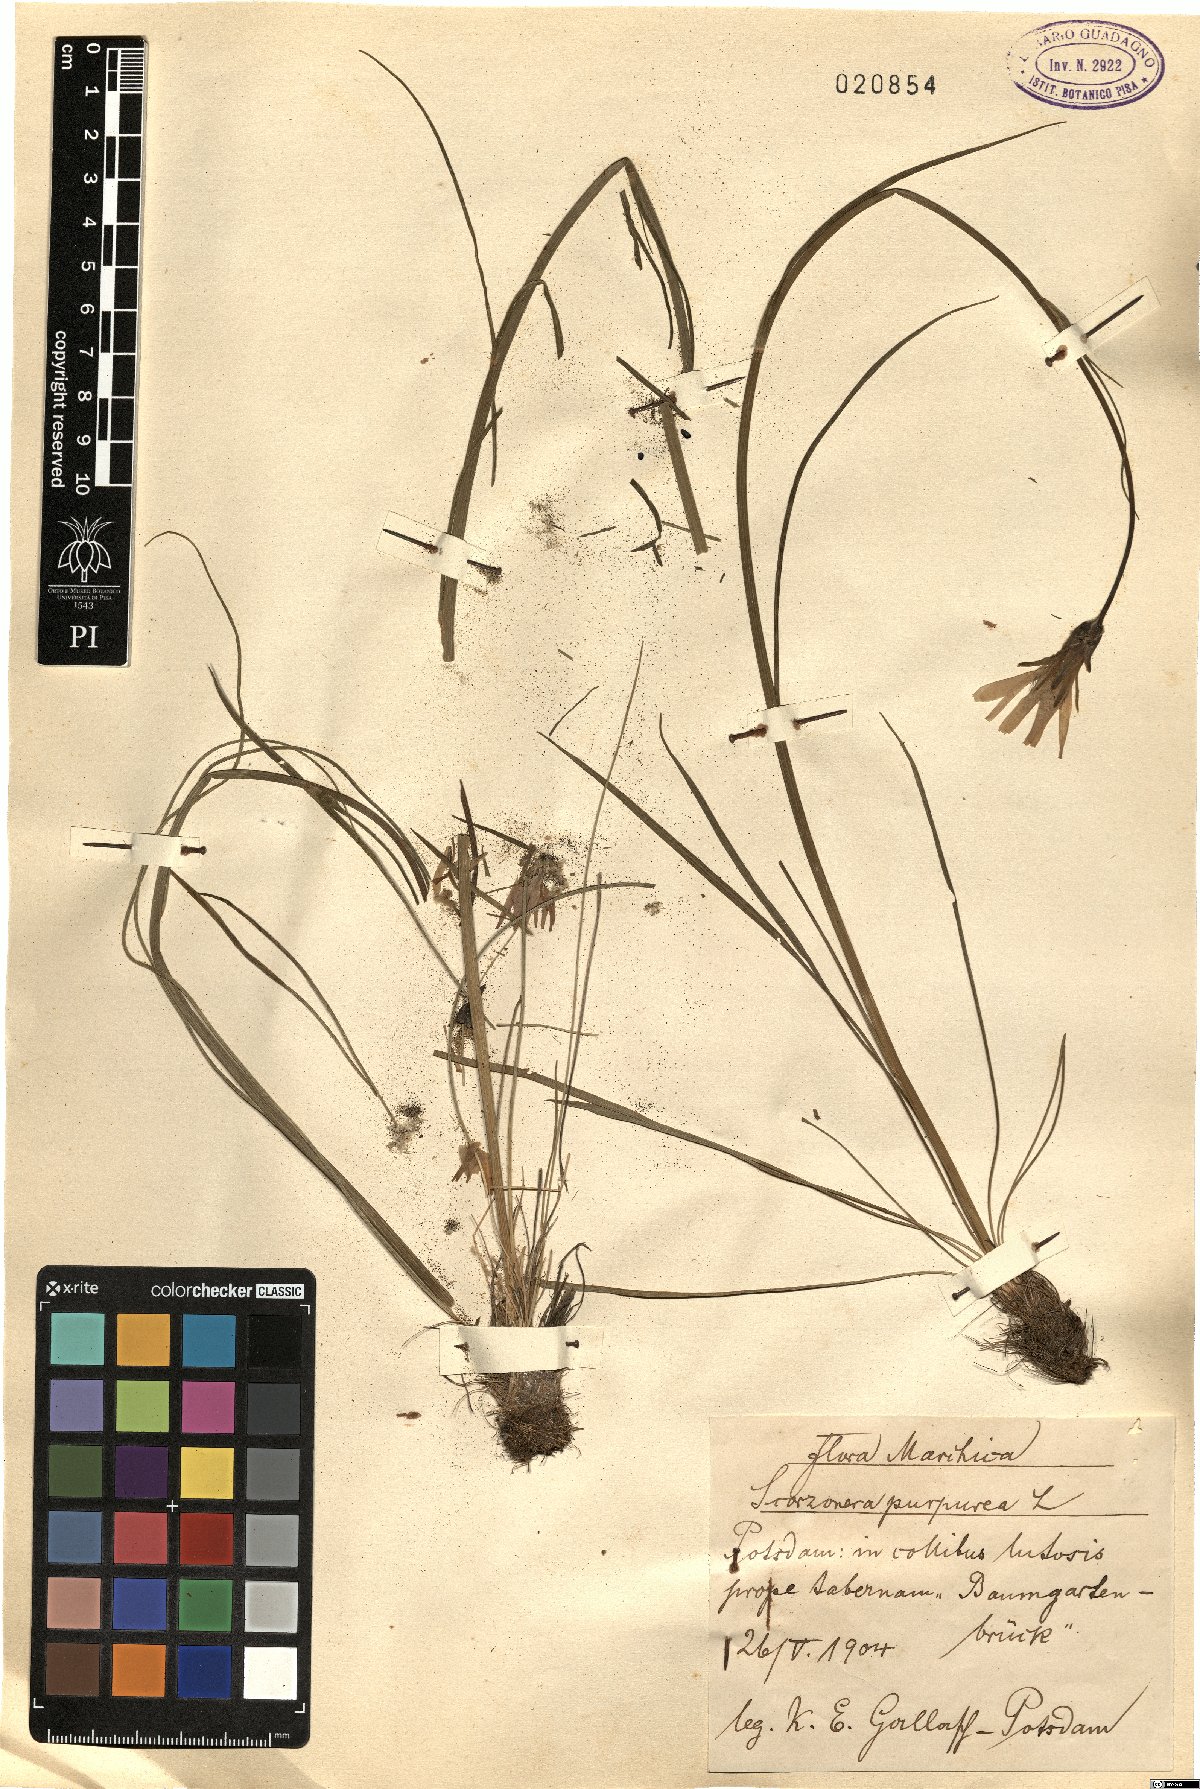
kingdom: Plantae
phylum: Tracheophyta
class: Magnoliopsida
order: Asterales
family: Asteraceae
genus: Scorzonera
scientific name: Scorzonera purpurea
